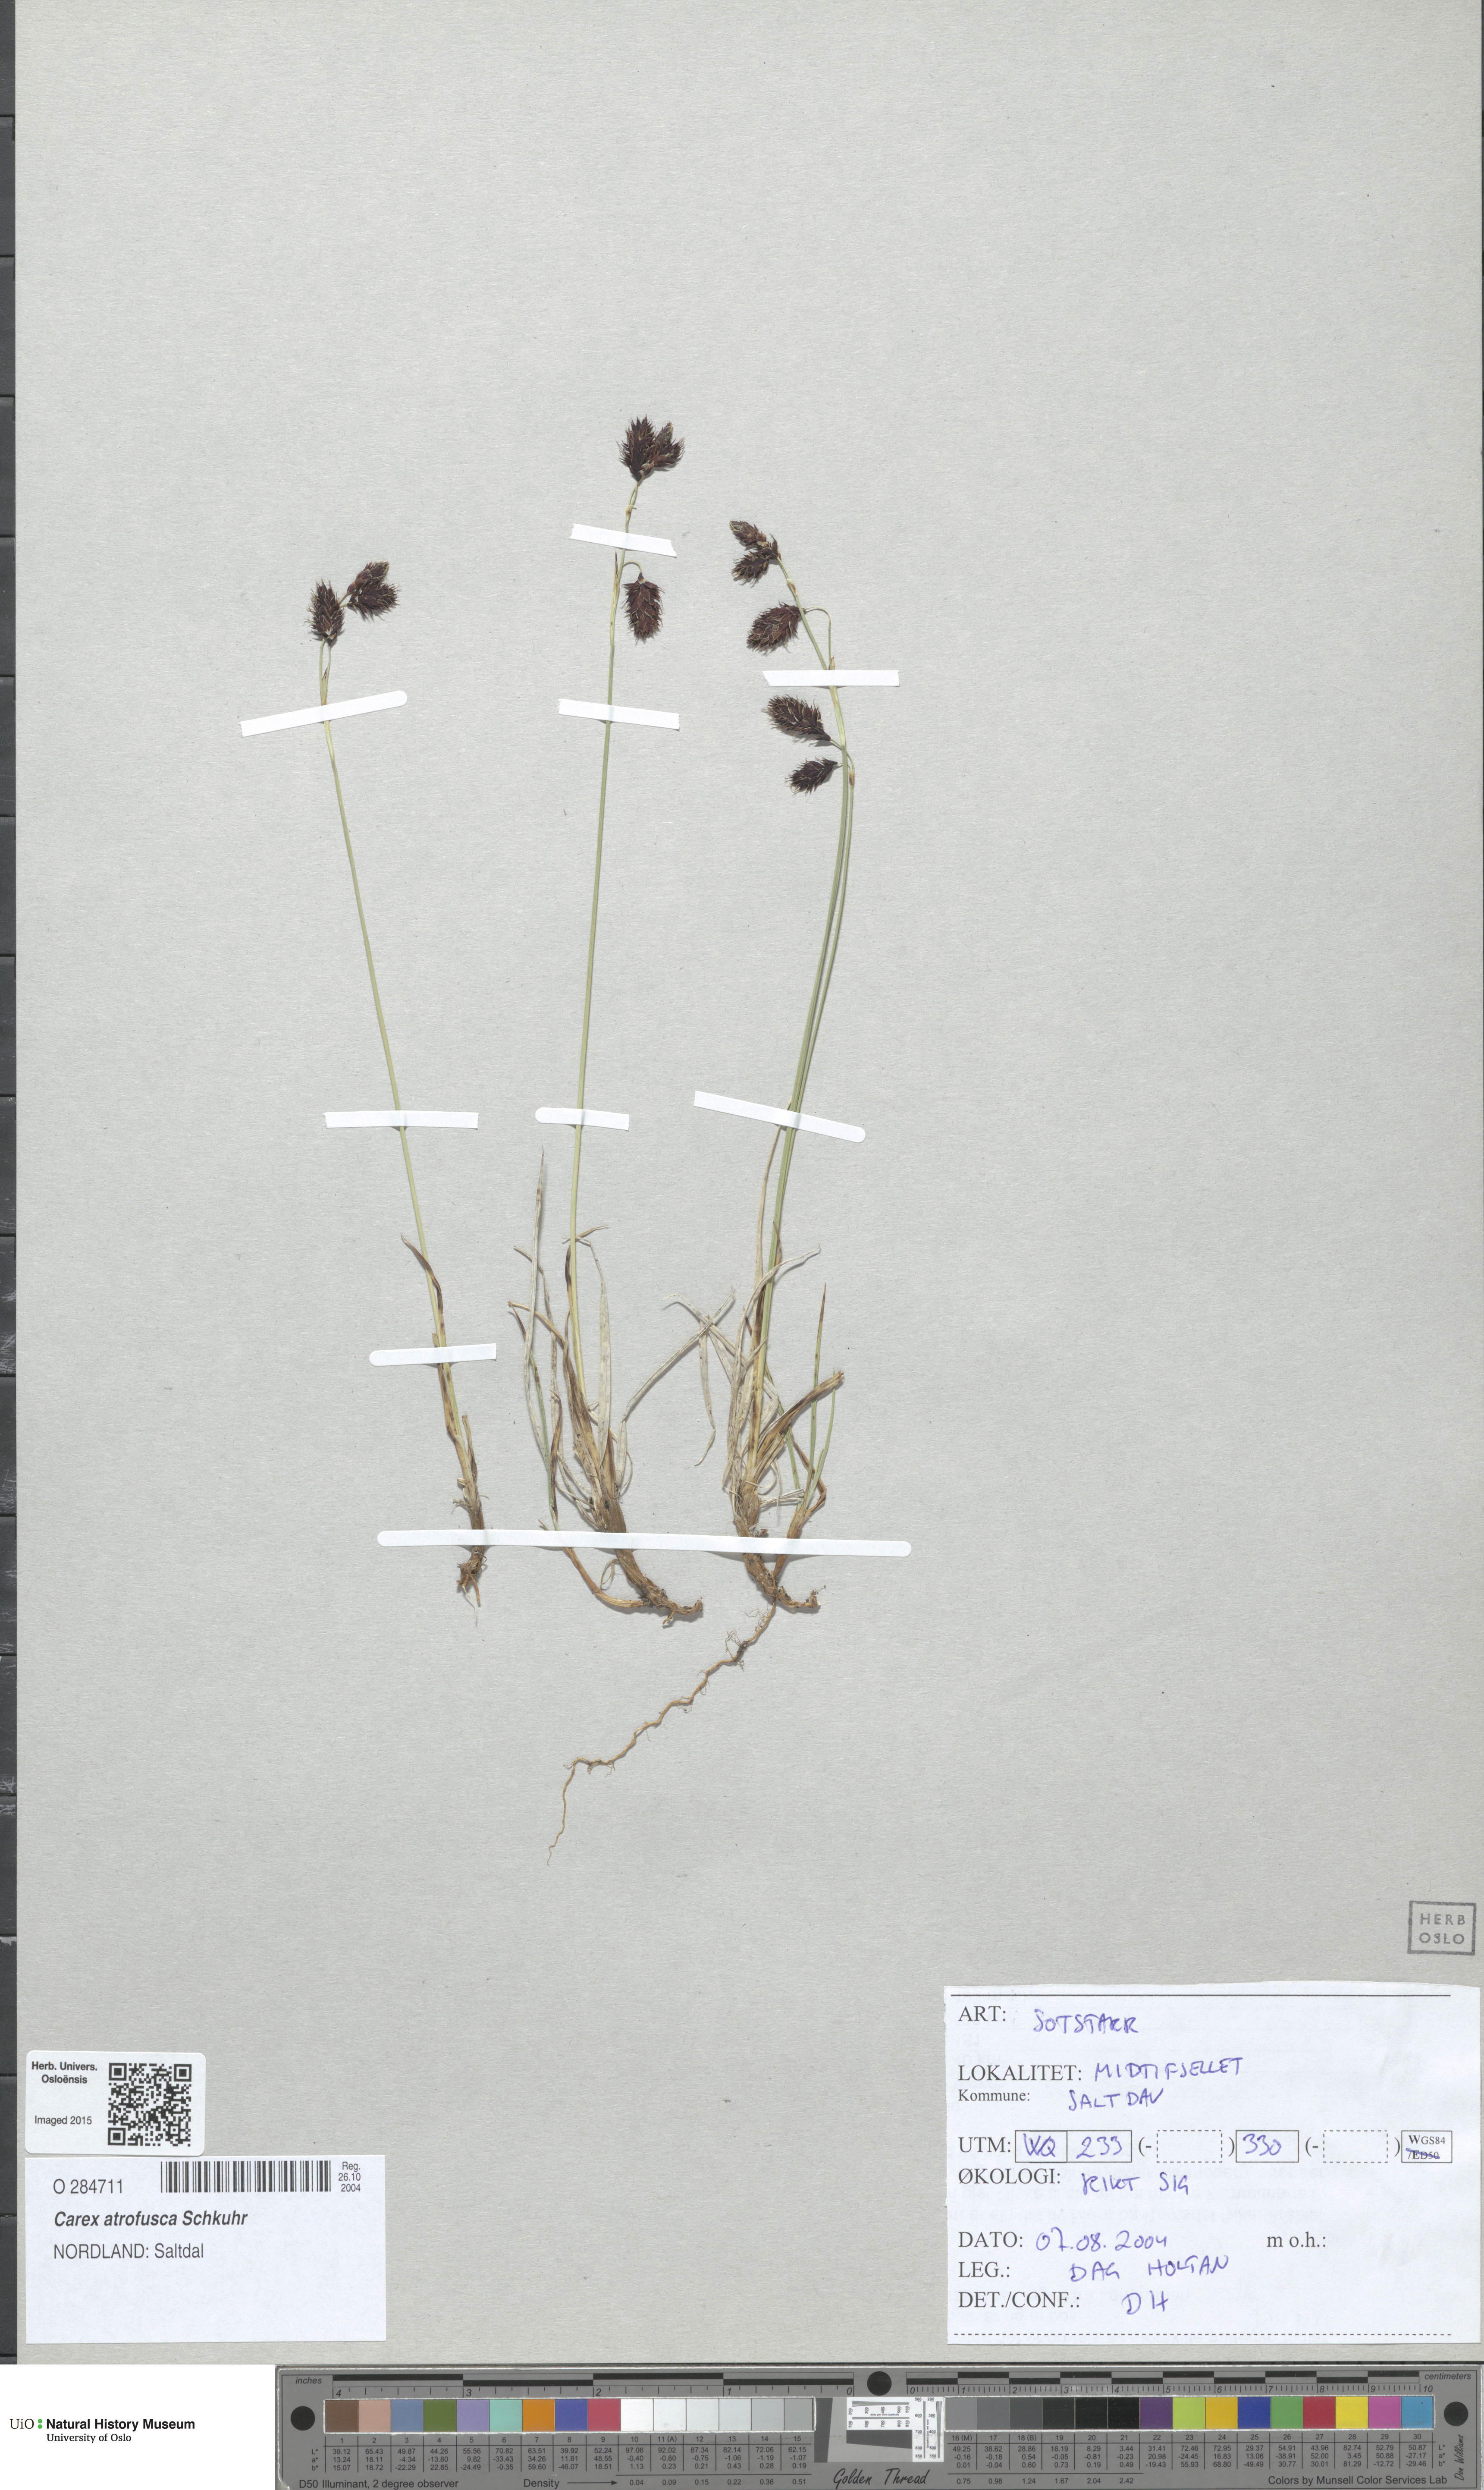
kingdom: Plantae
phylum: Tracheophyta
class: Liliopsida
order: Poales
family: Cyperaceae
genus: Carex
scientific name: Carex atrofusca
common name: Scorched alpine-sedge
